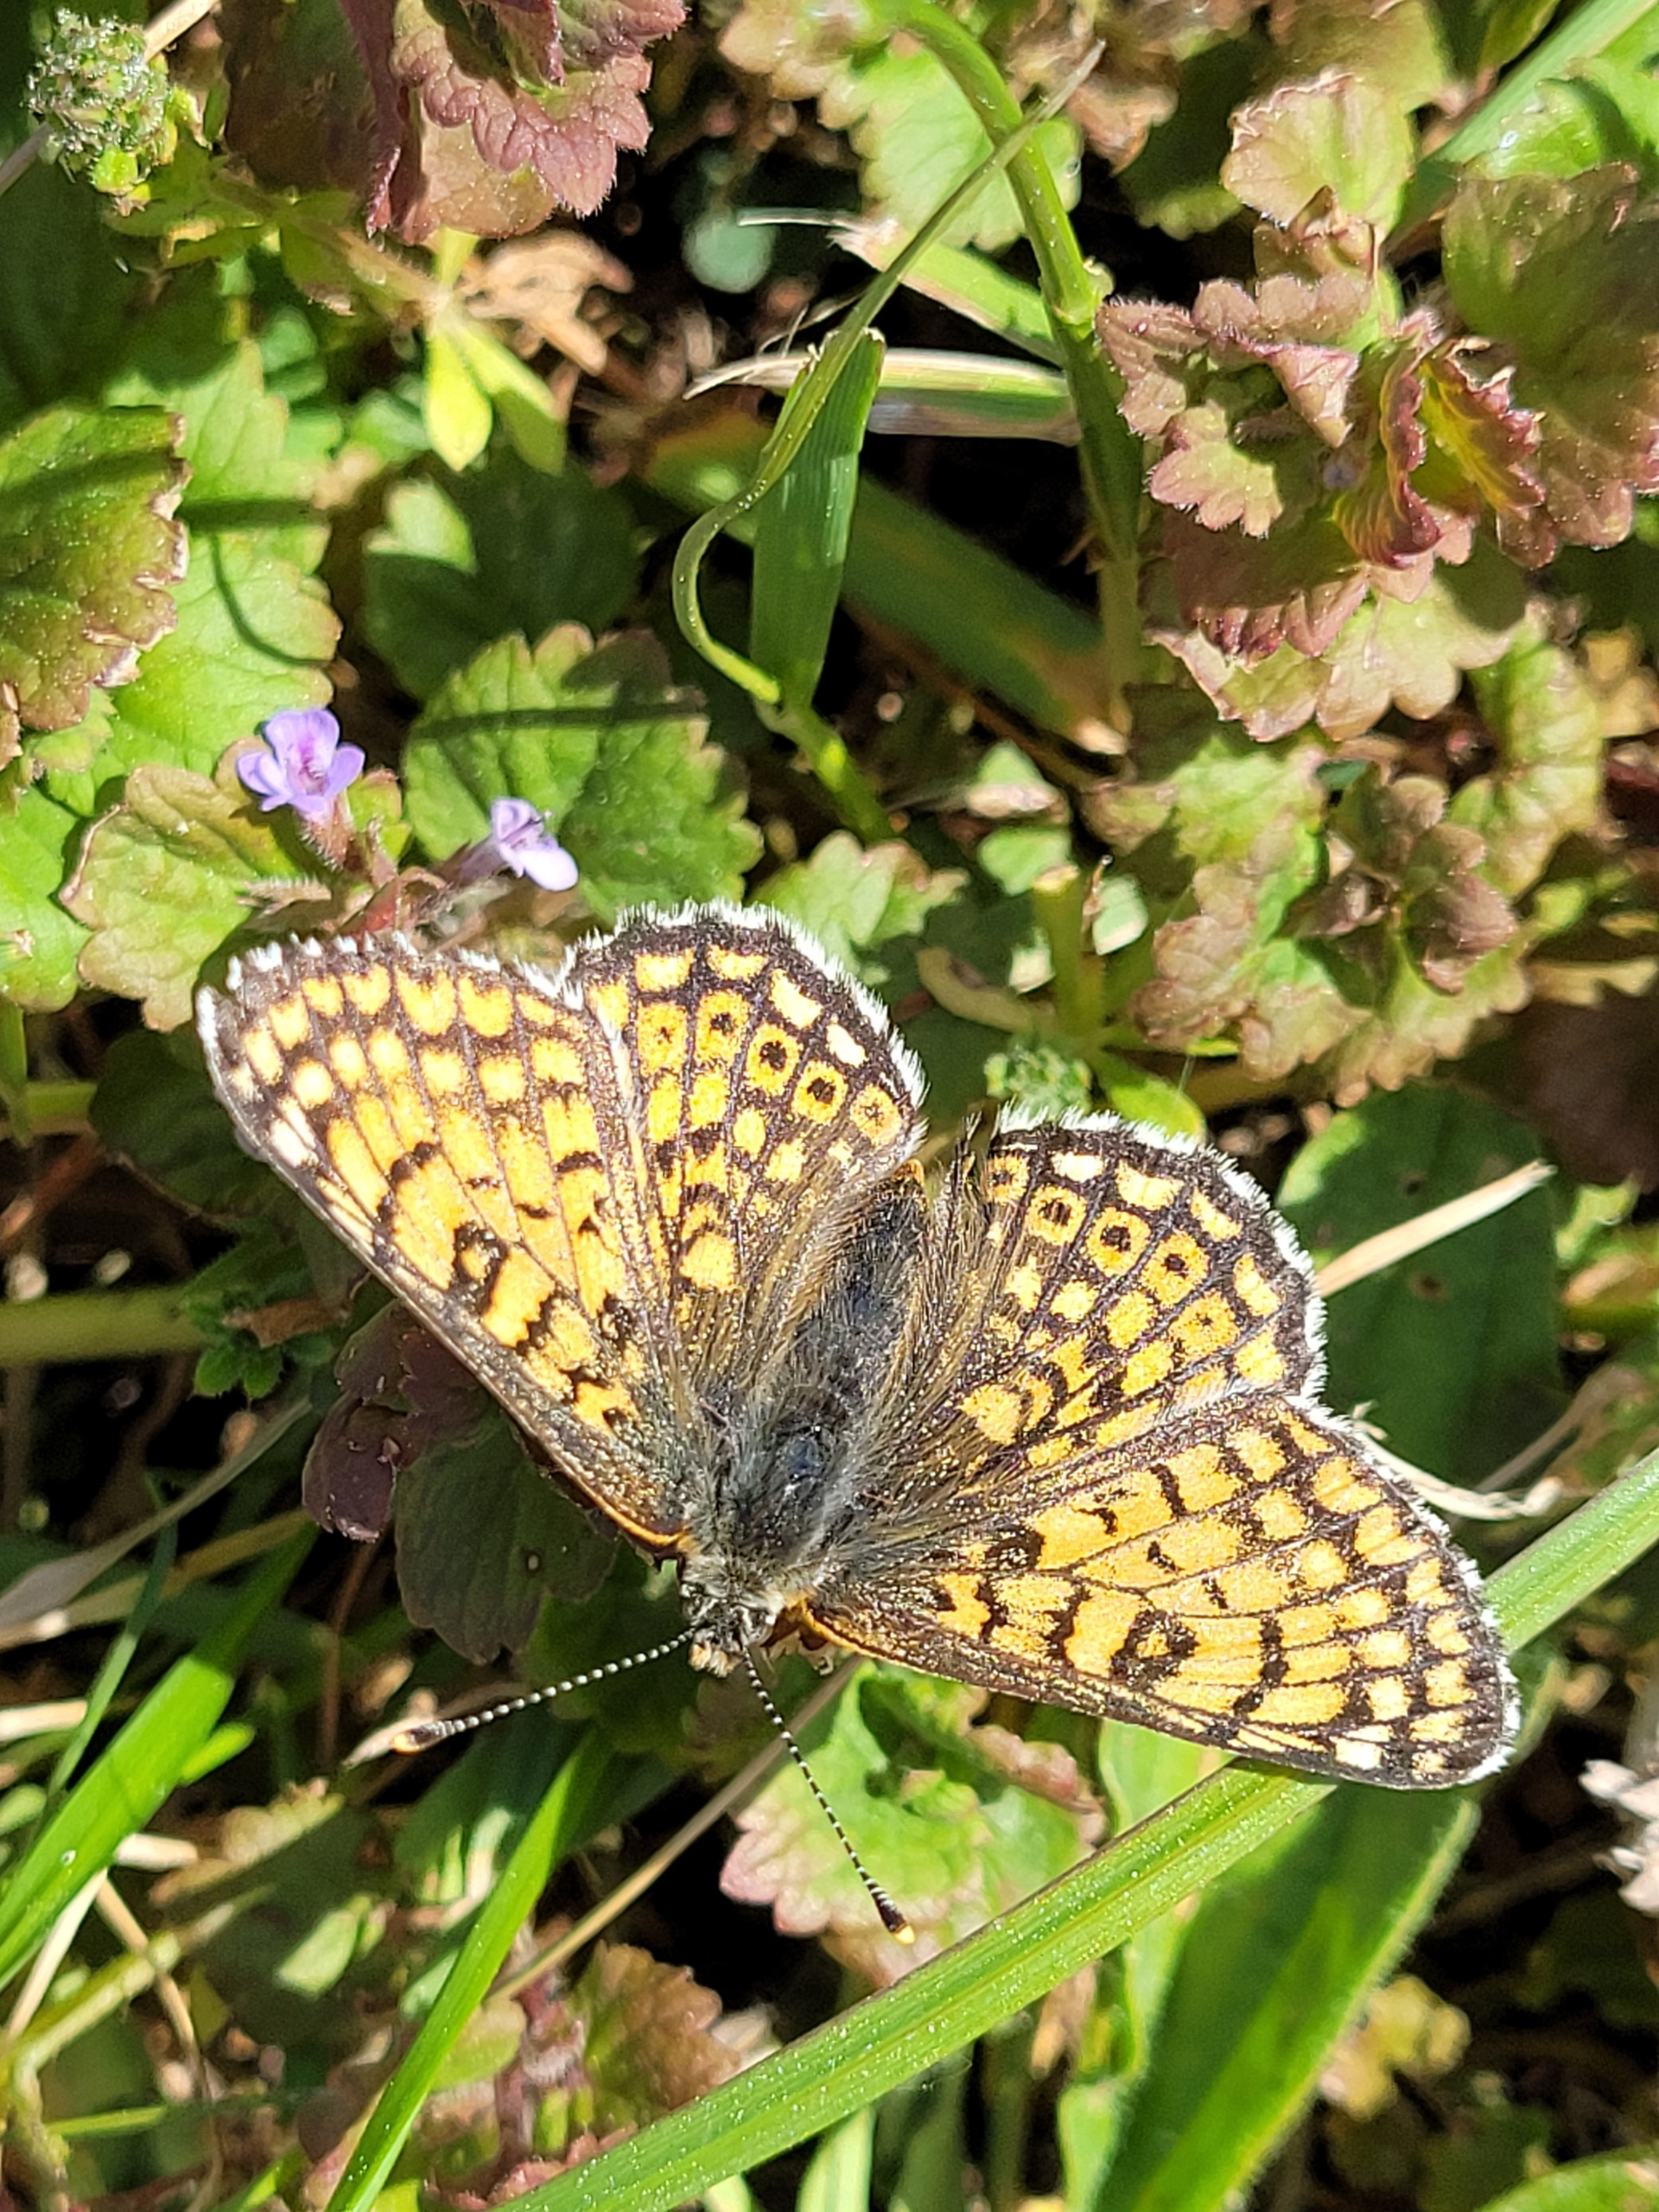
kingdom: Animalia
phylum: Arthropoda
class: Insecta
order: Lepidoptera
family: Nymphalidae
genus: Melitaea
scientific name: Melitaea cinxia
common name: Okkergul pletvinge
